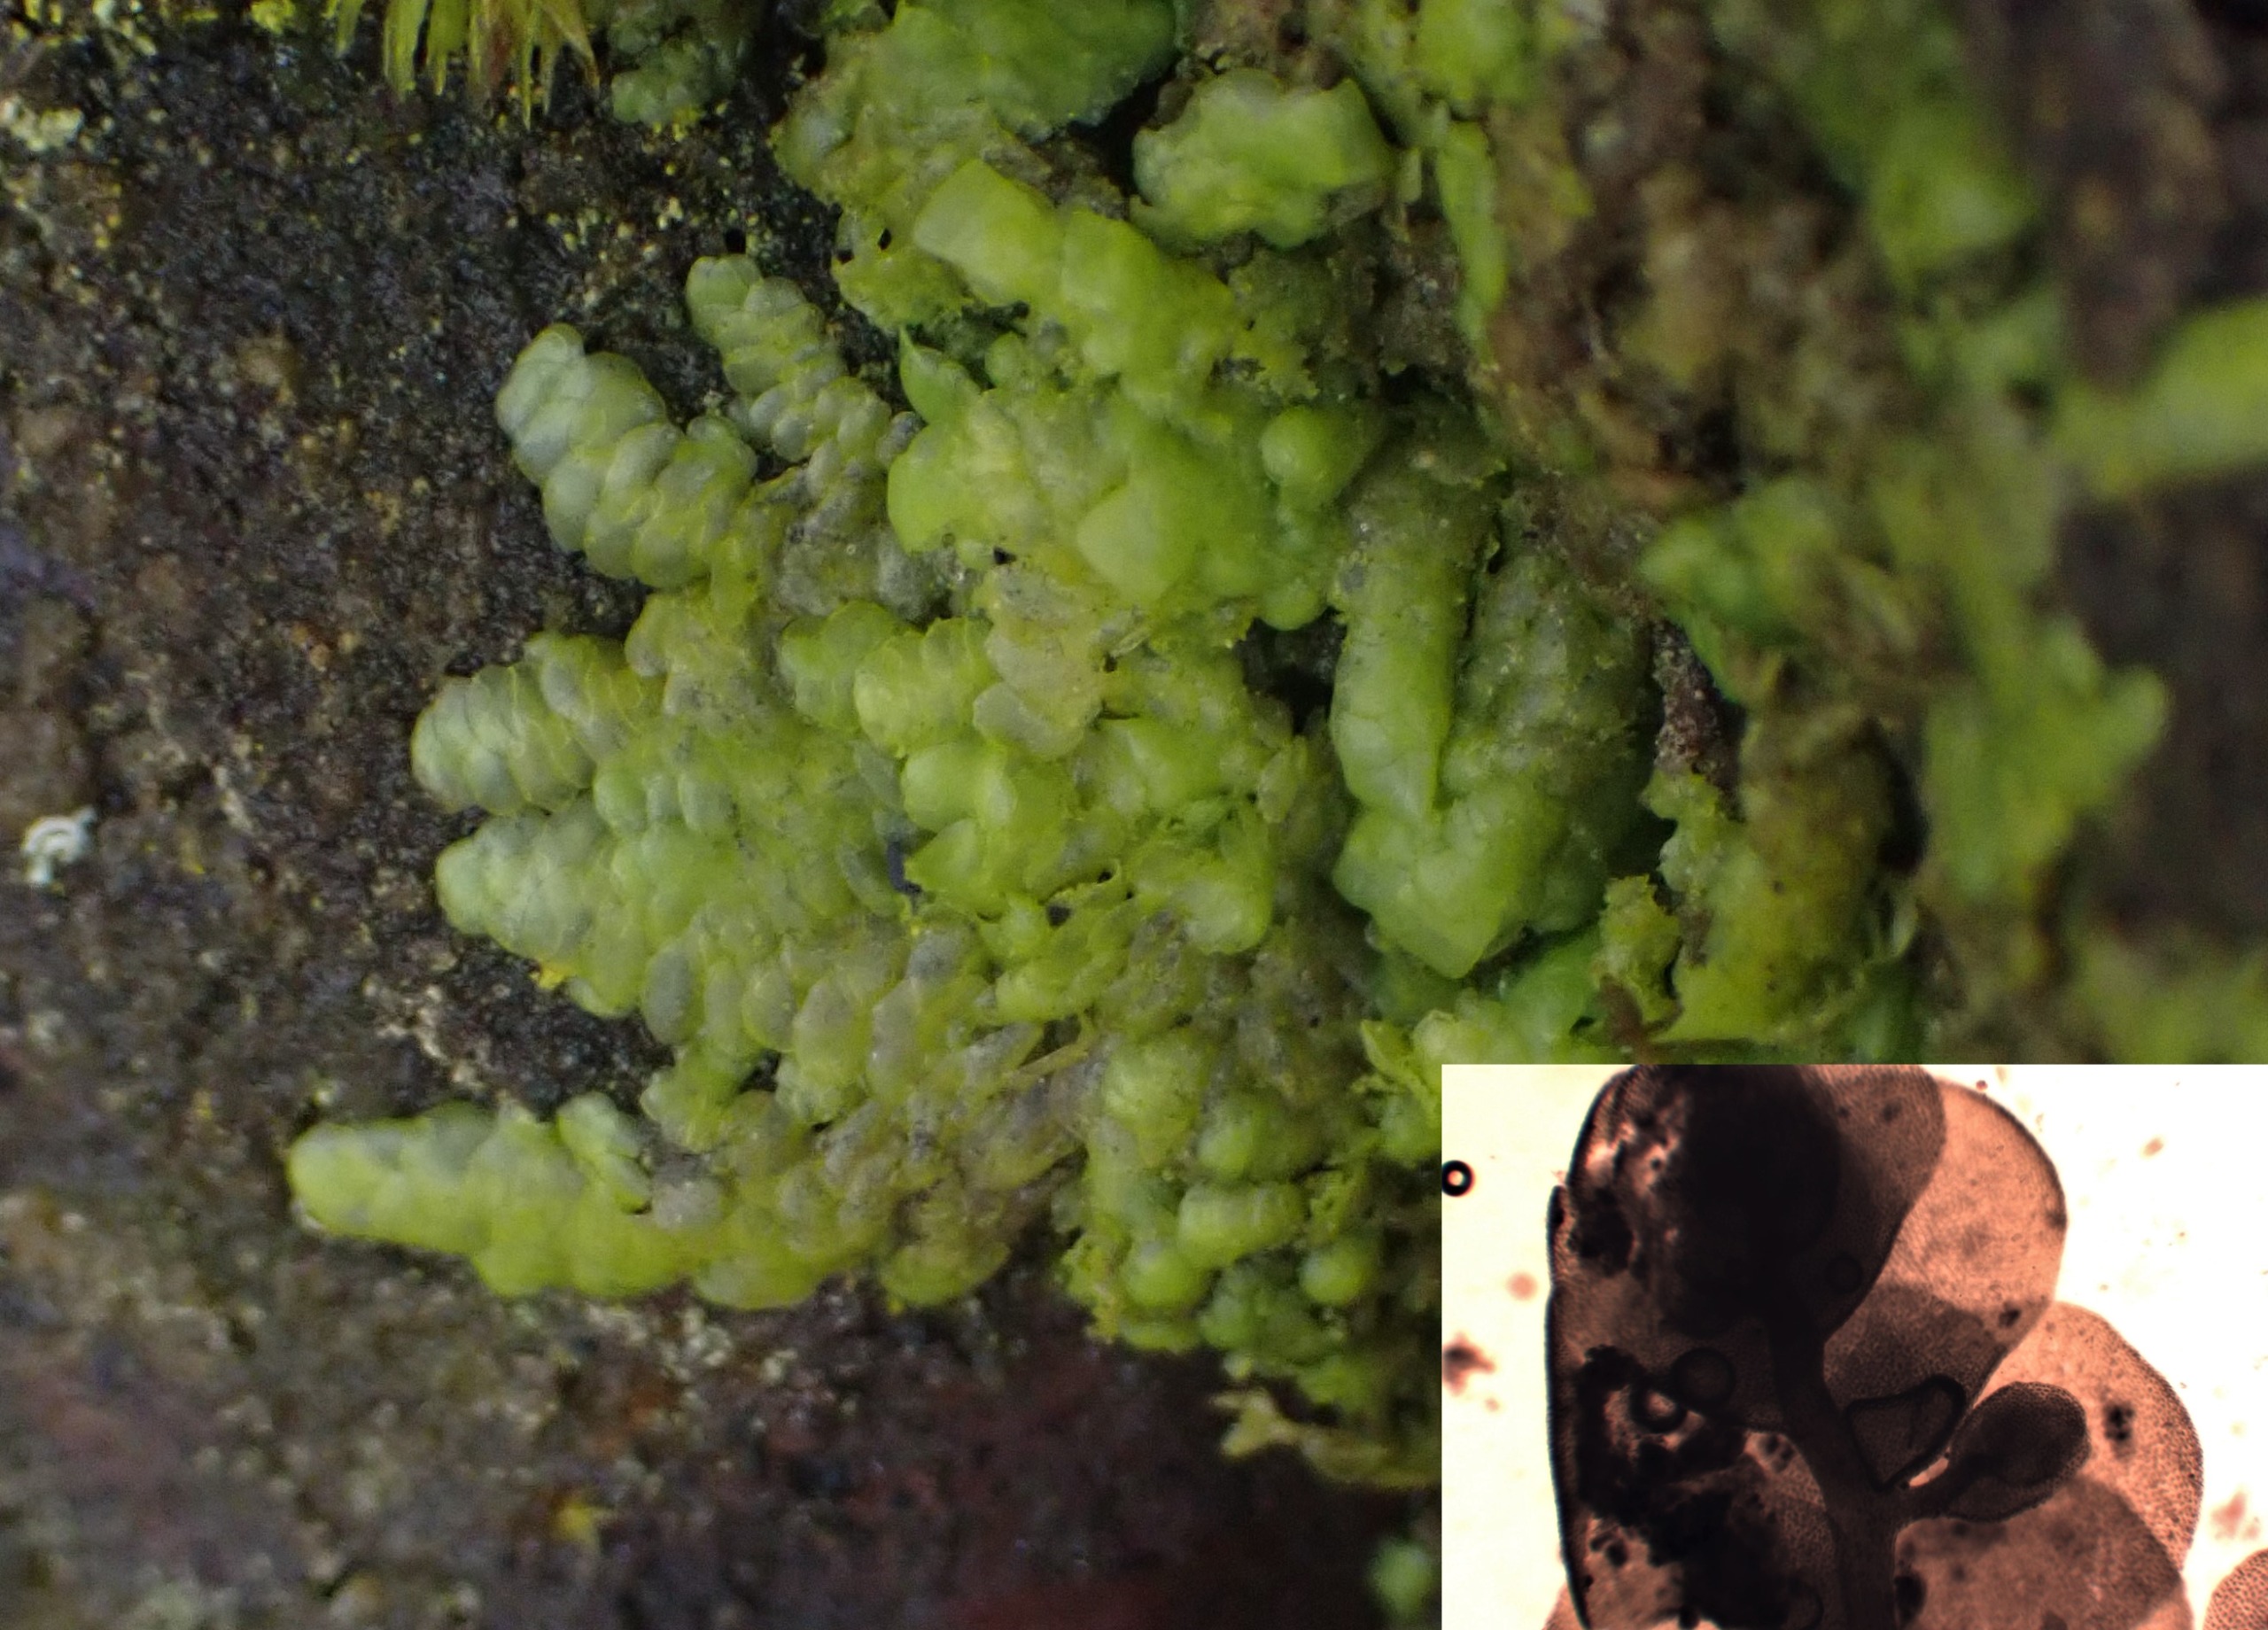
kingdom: Plantae
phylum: Marchantiophyta
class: Jungermanniopsida
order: Porellales
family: Radulaceae
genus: Radula
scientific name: Radula complanata
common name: Almindelig spartelmos
